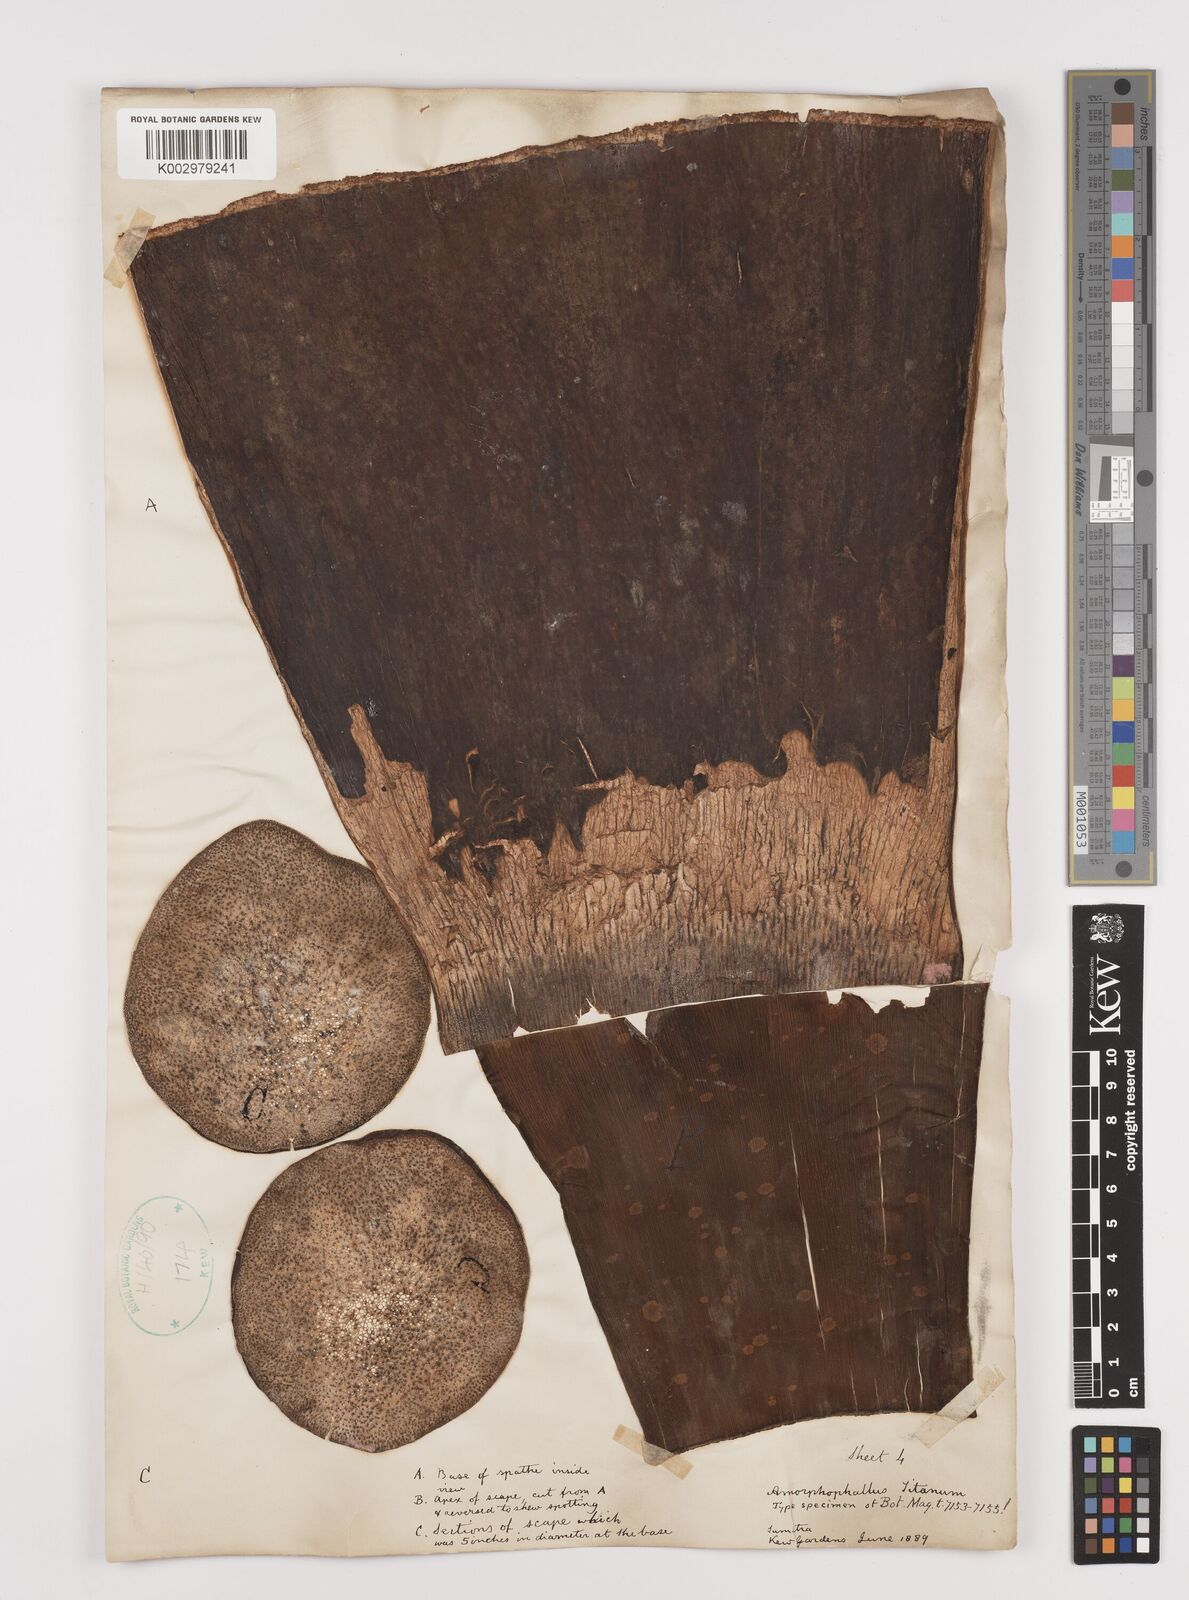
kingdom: Plantae
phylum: Tracheophyta
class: Liliopsida
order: Alismatales
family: Araceae
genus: Amorphophallus
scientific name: Amorphophallus titanum
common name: Titan arum
